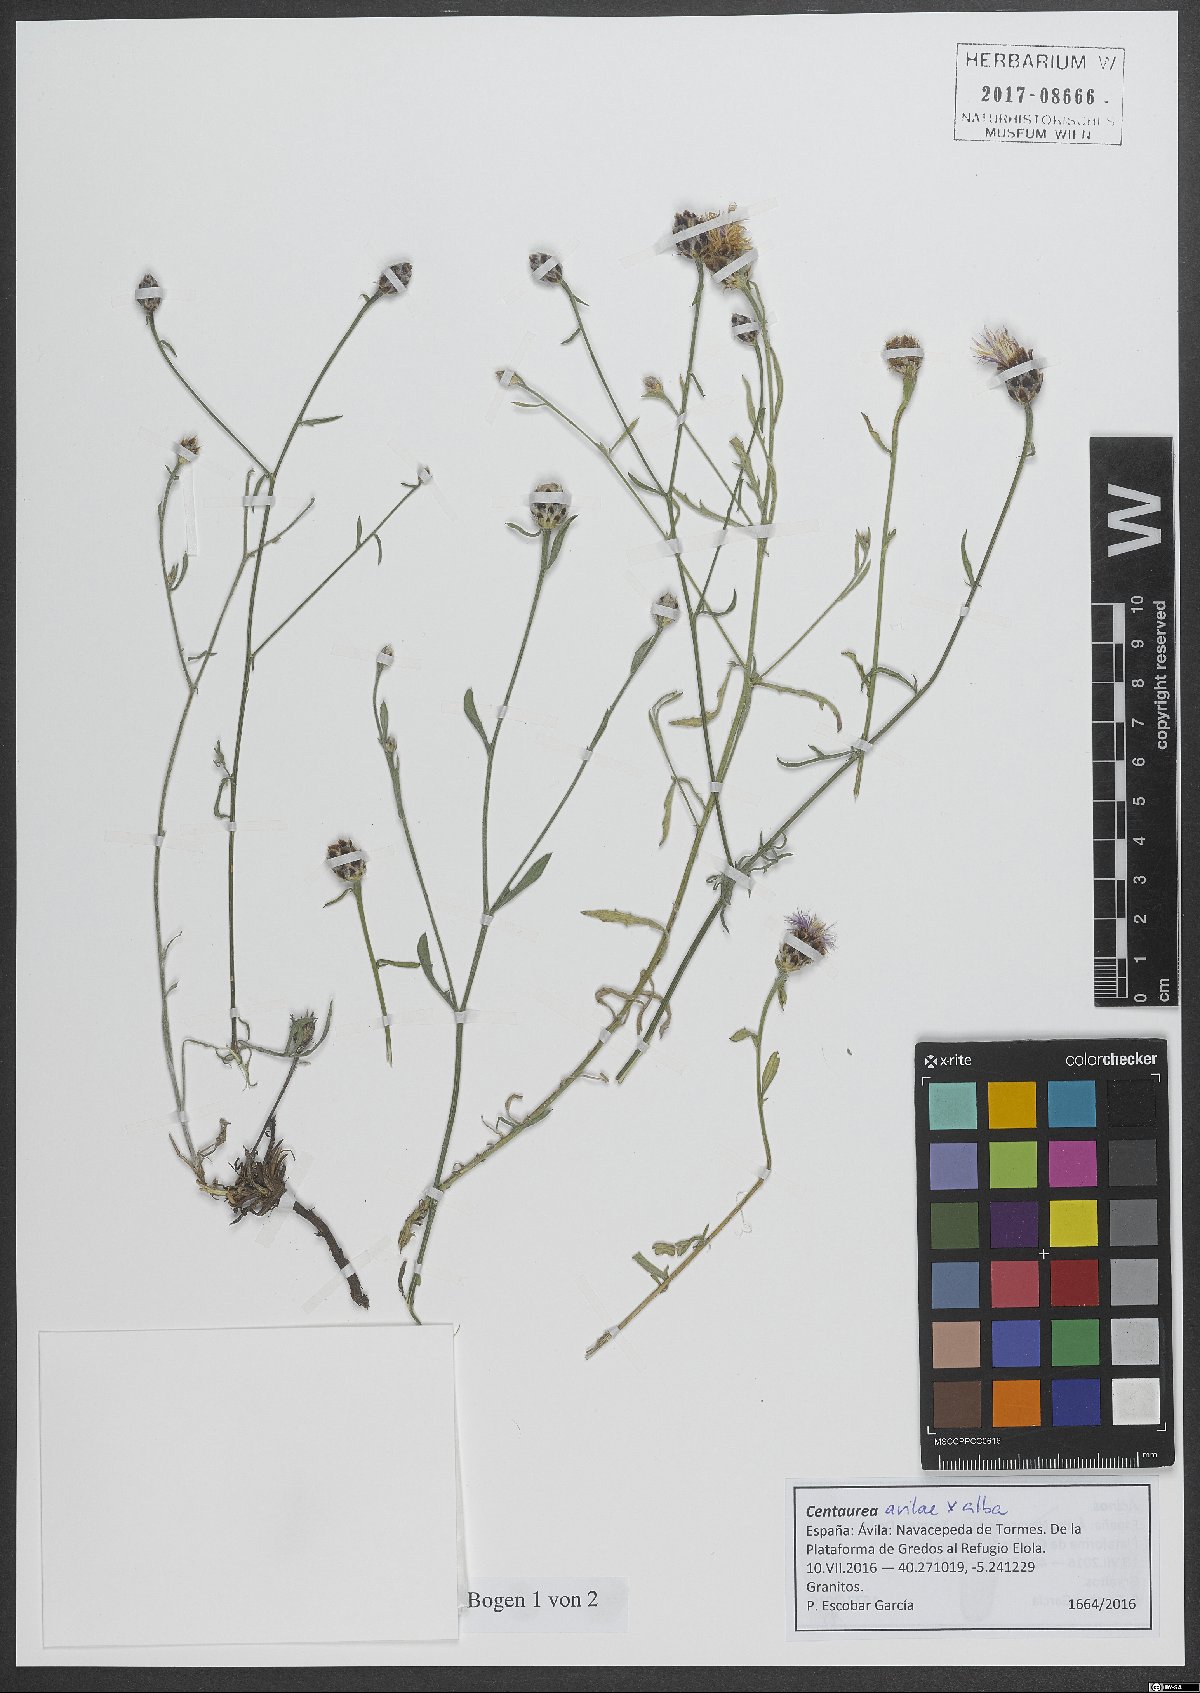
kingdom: Plantae
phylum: Tracheophyta
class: Magnoliopsida
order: Asterales
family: Asteraceae
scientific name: Asteraceae
